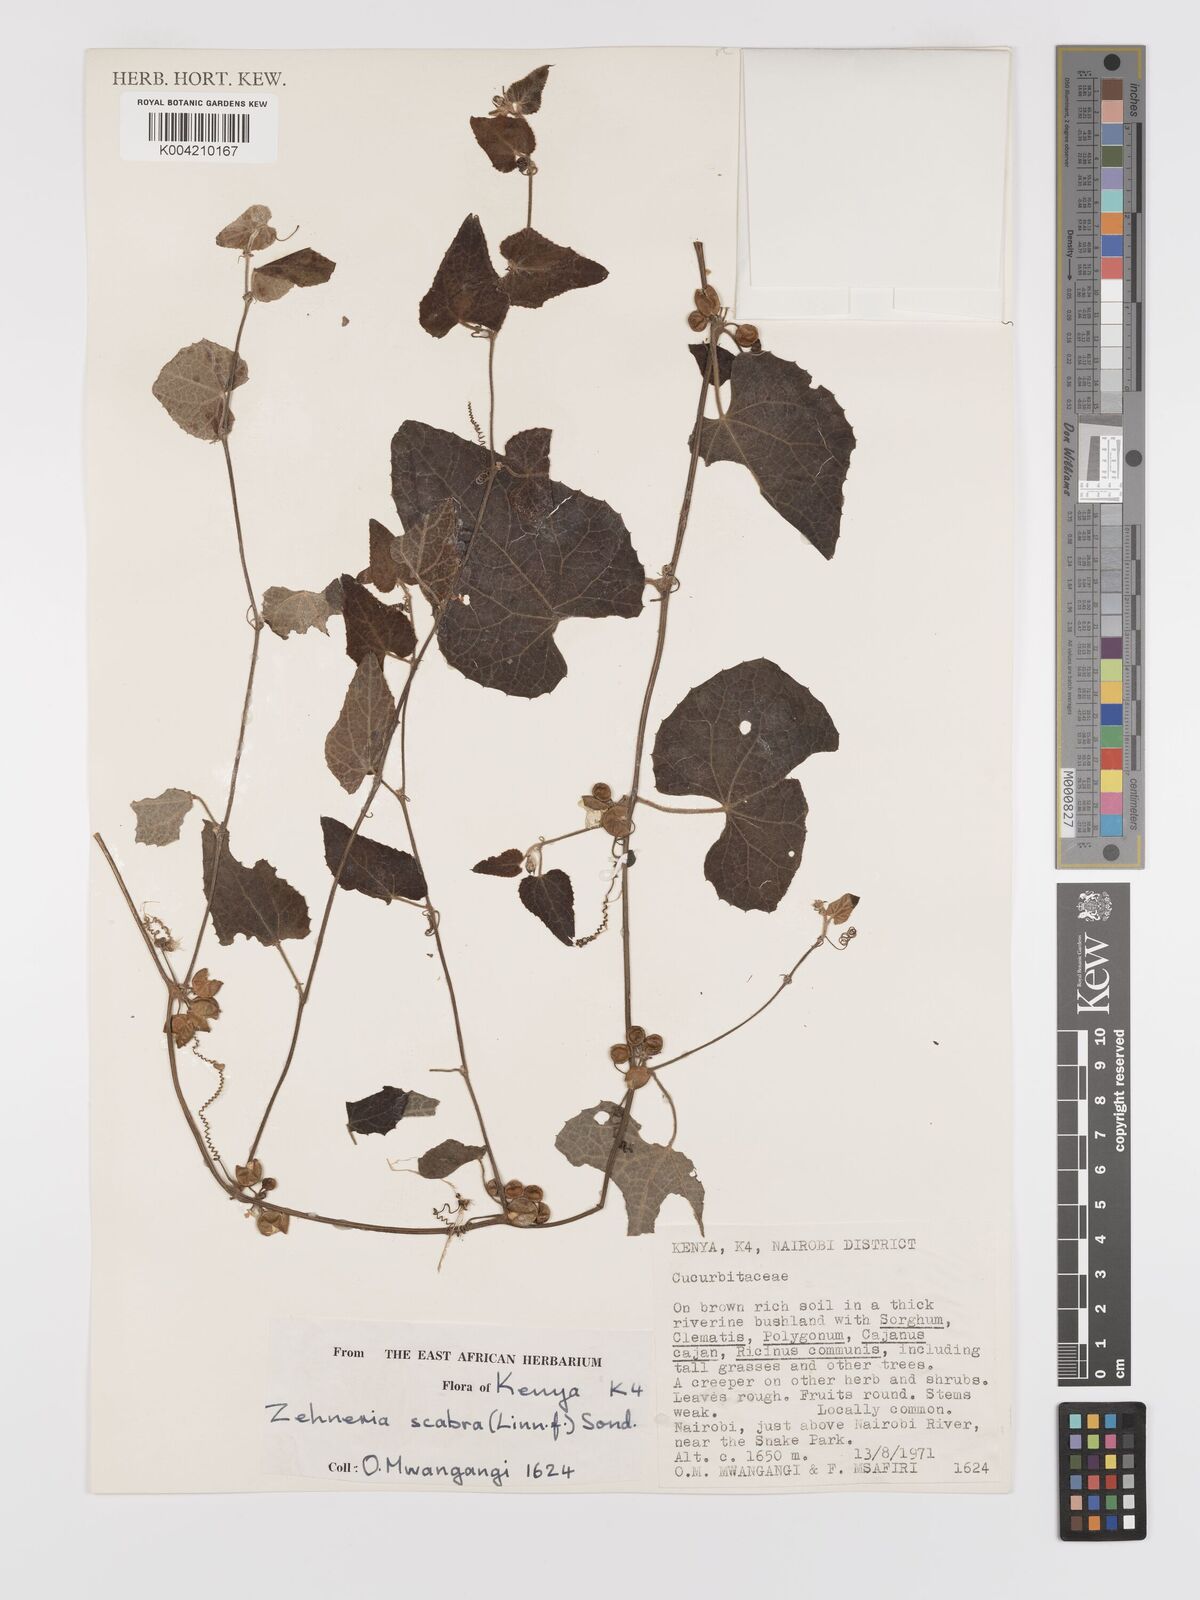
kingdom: Plantae
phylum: Tracheophyta
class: Magnoliopsida
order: Cucurbitales
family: Cucurbitaceae
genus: Zehneria
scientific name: Zehneria scabra
